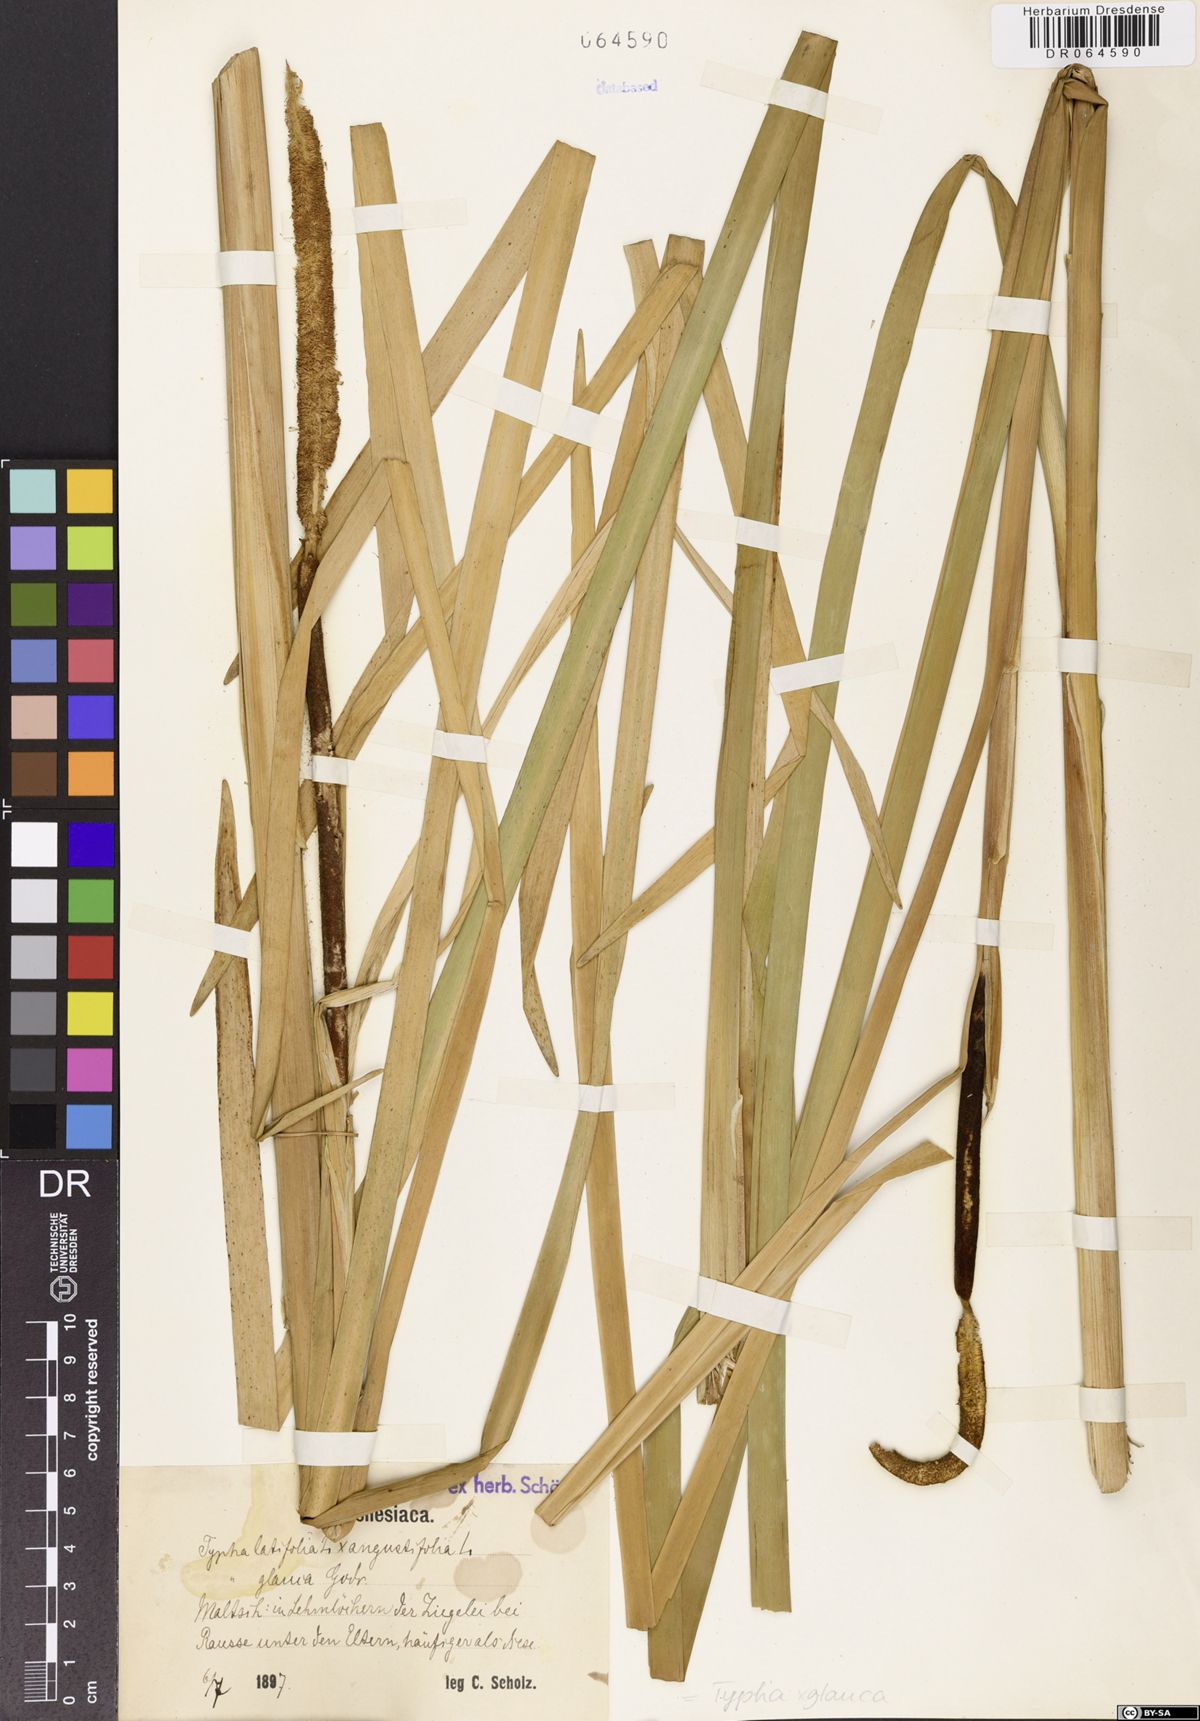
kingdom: Plantae
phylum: Tracheophyta
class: Liliopsida
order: Poales
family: Typhaceae
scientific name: Typhaceae
